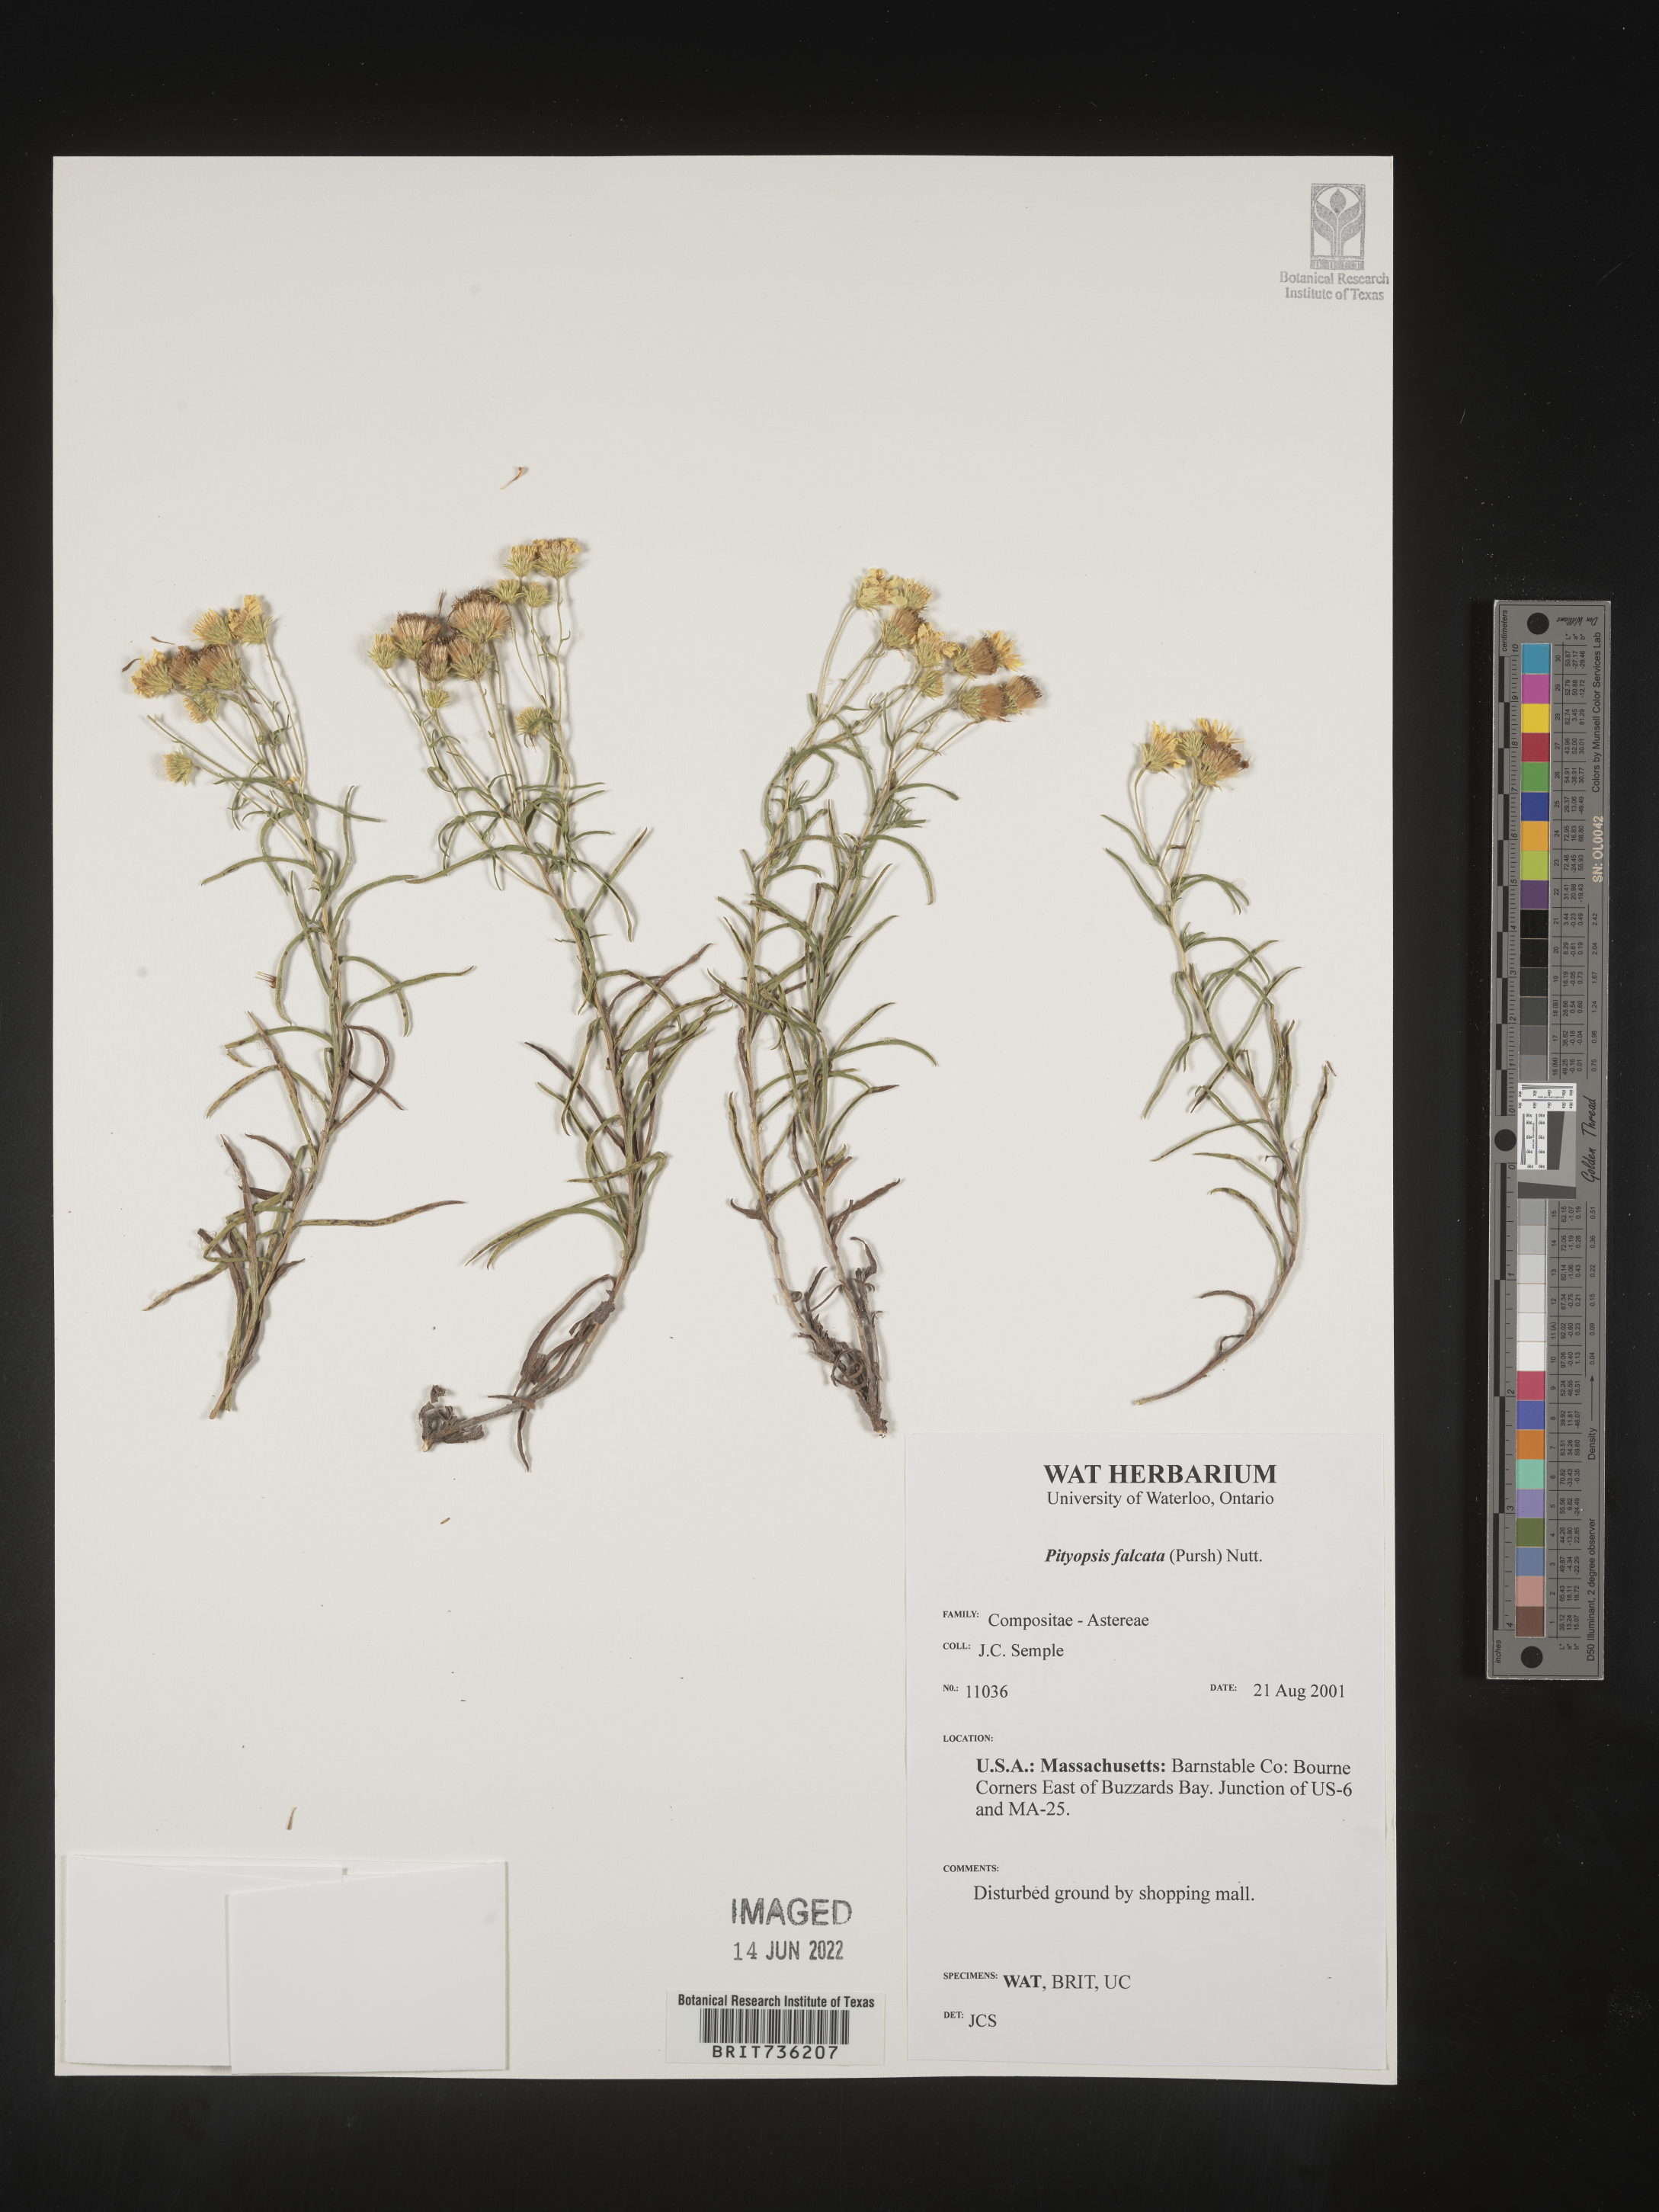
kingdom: Plantae
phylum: Tracheophyta
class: Magnoliopsida
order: Asterales
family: Asteraceae
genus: Pityopsis
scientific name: Pityopsis falcata
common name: Sickle-leaved goldenaster
